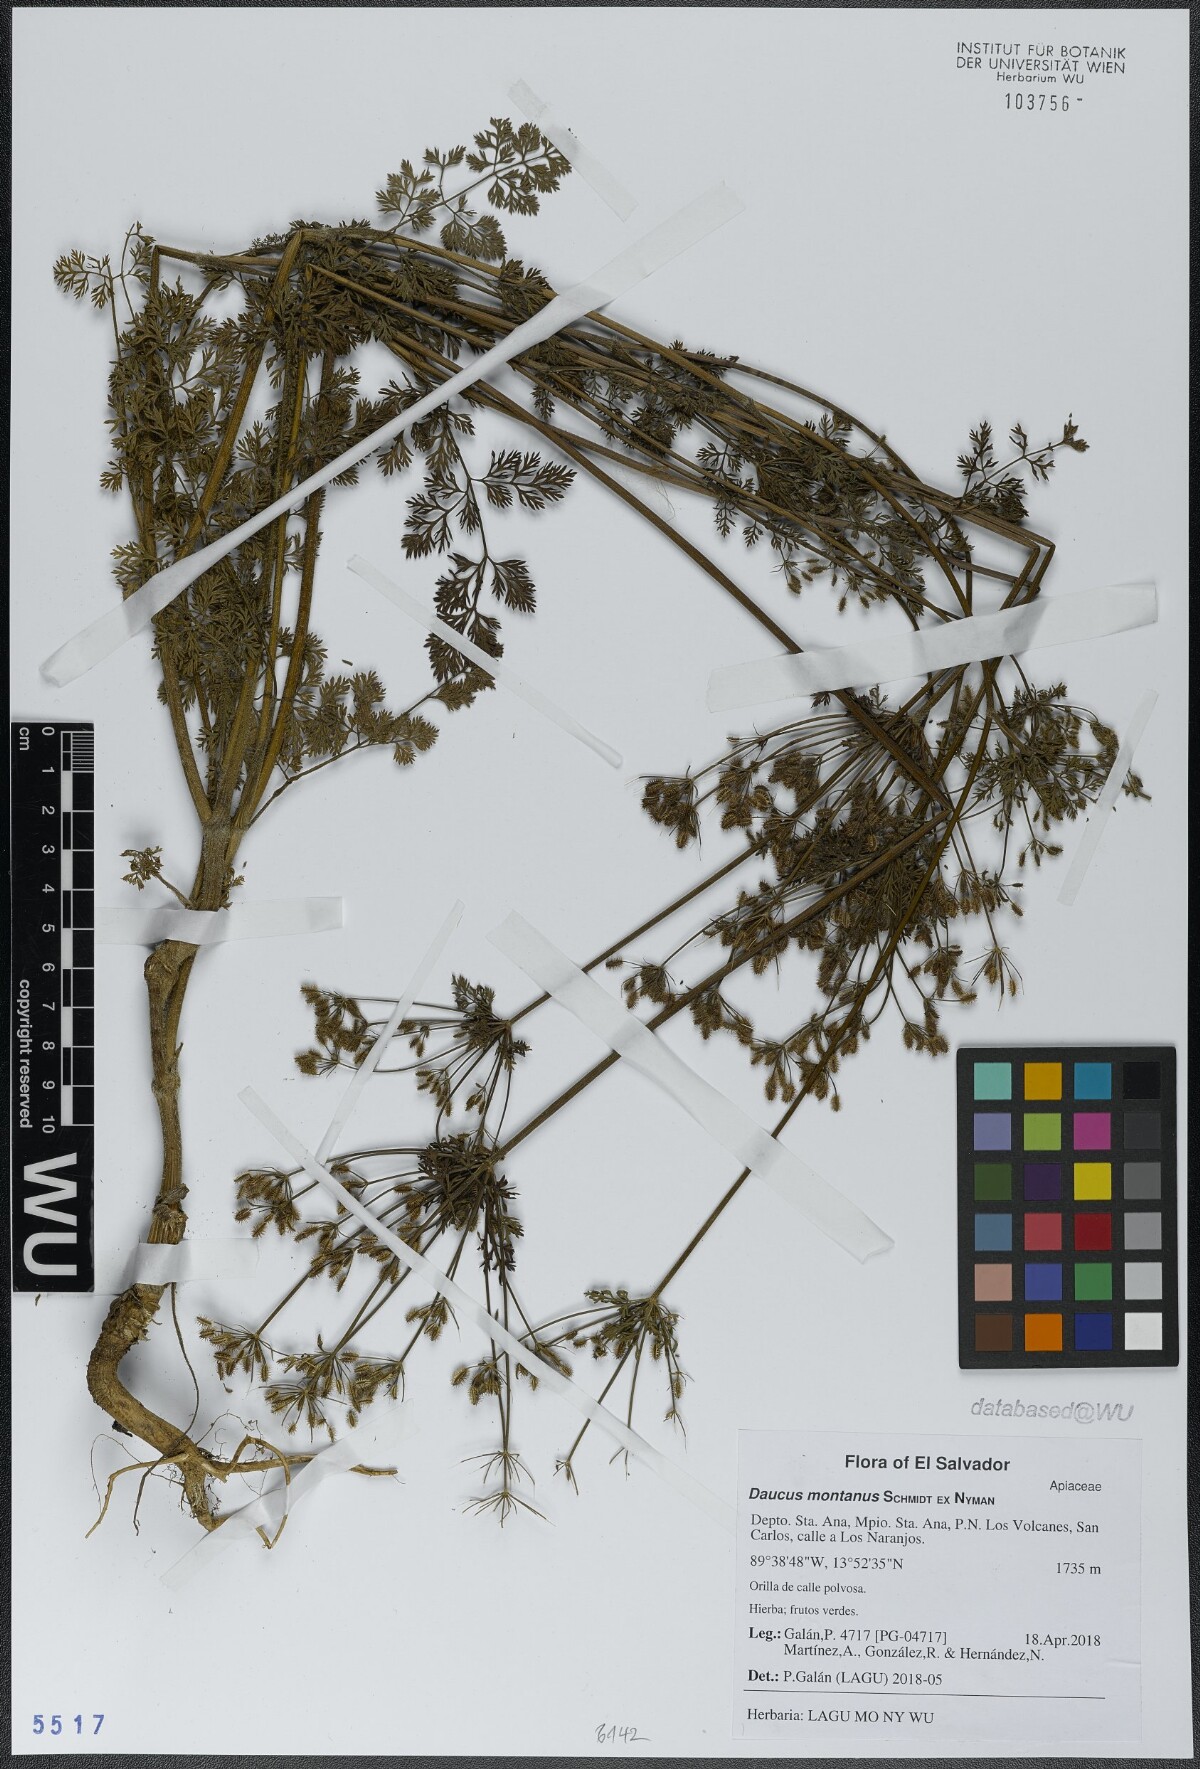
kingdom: Plantae
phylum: Tracheophyta
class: Magnoliopsida
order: Apiales
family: Apiaceae
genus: Daucus
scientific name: Daucus carota
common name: Wild carrot
